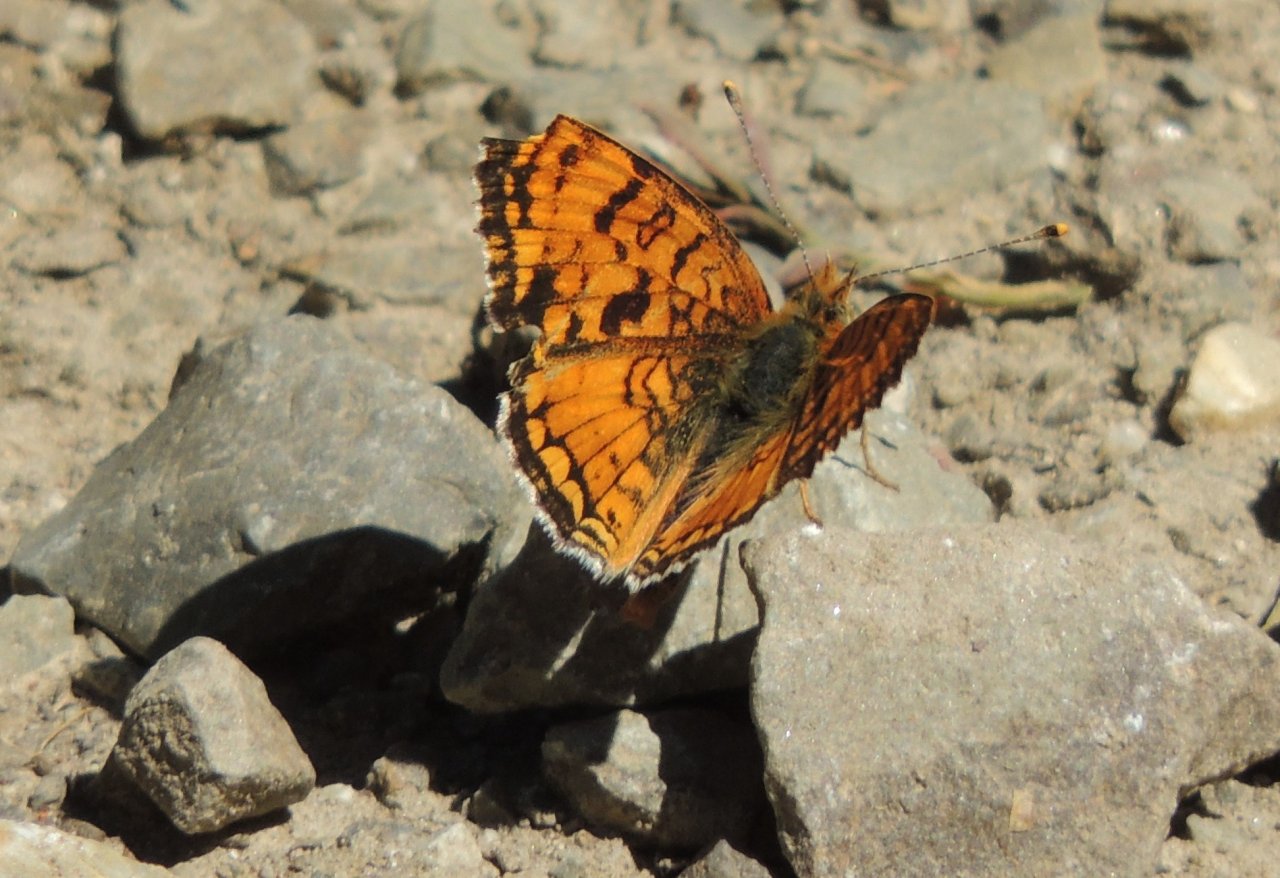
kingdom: Animalia
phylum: Arthropoda
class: Insecta
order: Lepidoptera
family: Nymphalidae
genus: Eresia
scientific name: Eresia aveyrona
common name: Mylitta Crescent
